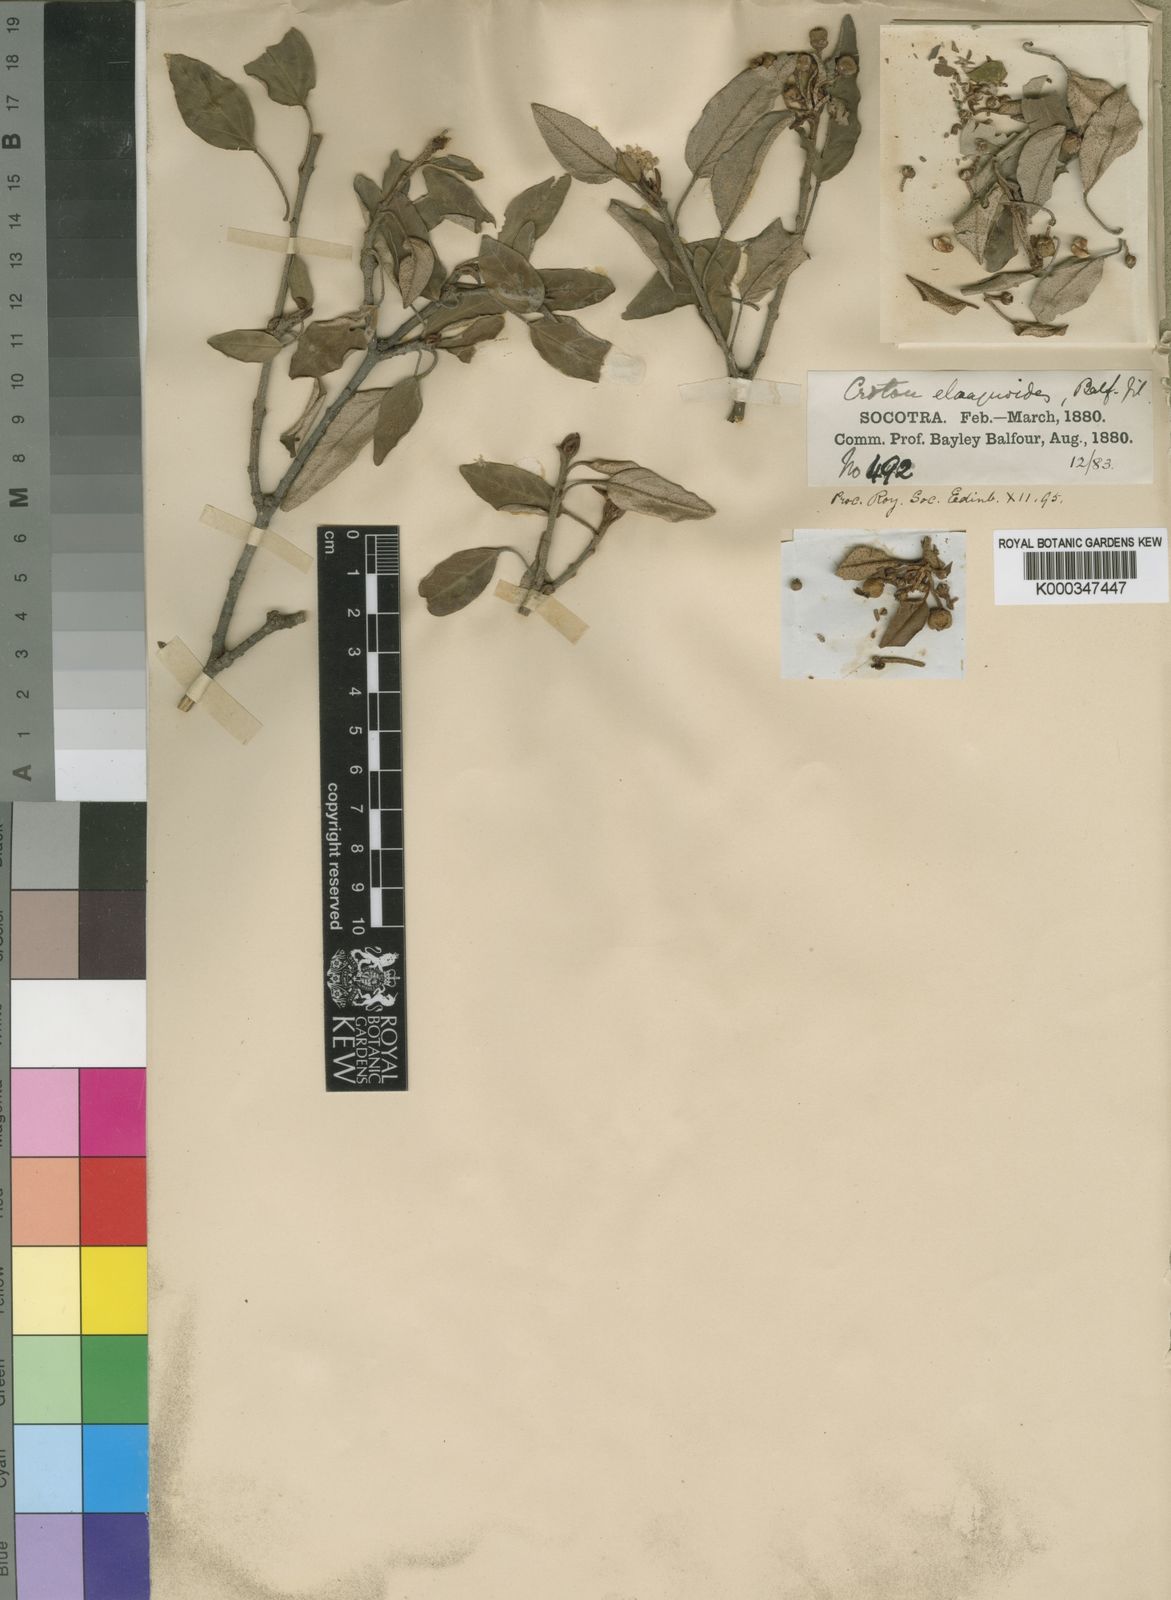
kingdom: Plantae
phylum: Tracheophyta
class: Magnoliopsida
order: Malpighiales
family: Euphorbiaceae
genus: Croton
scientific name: Croton sulcifructus
